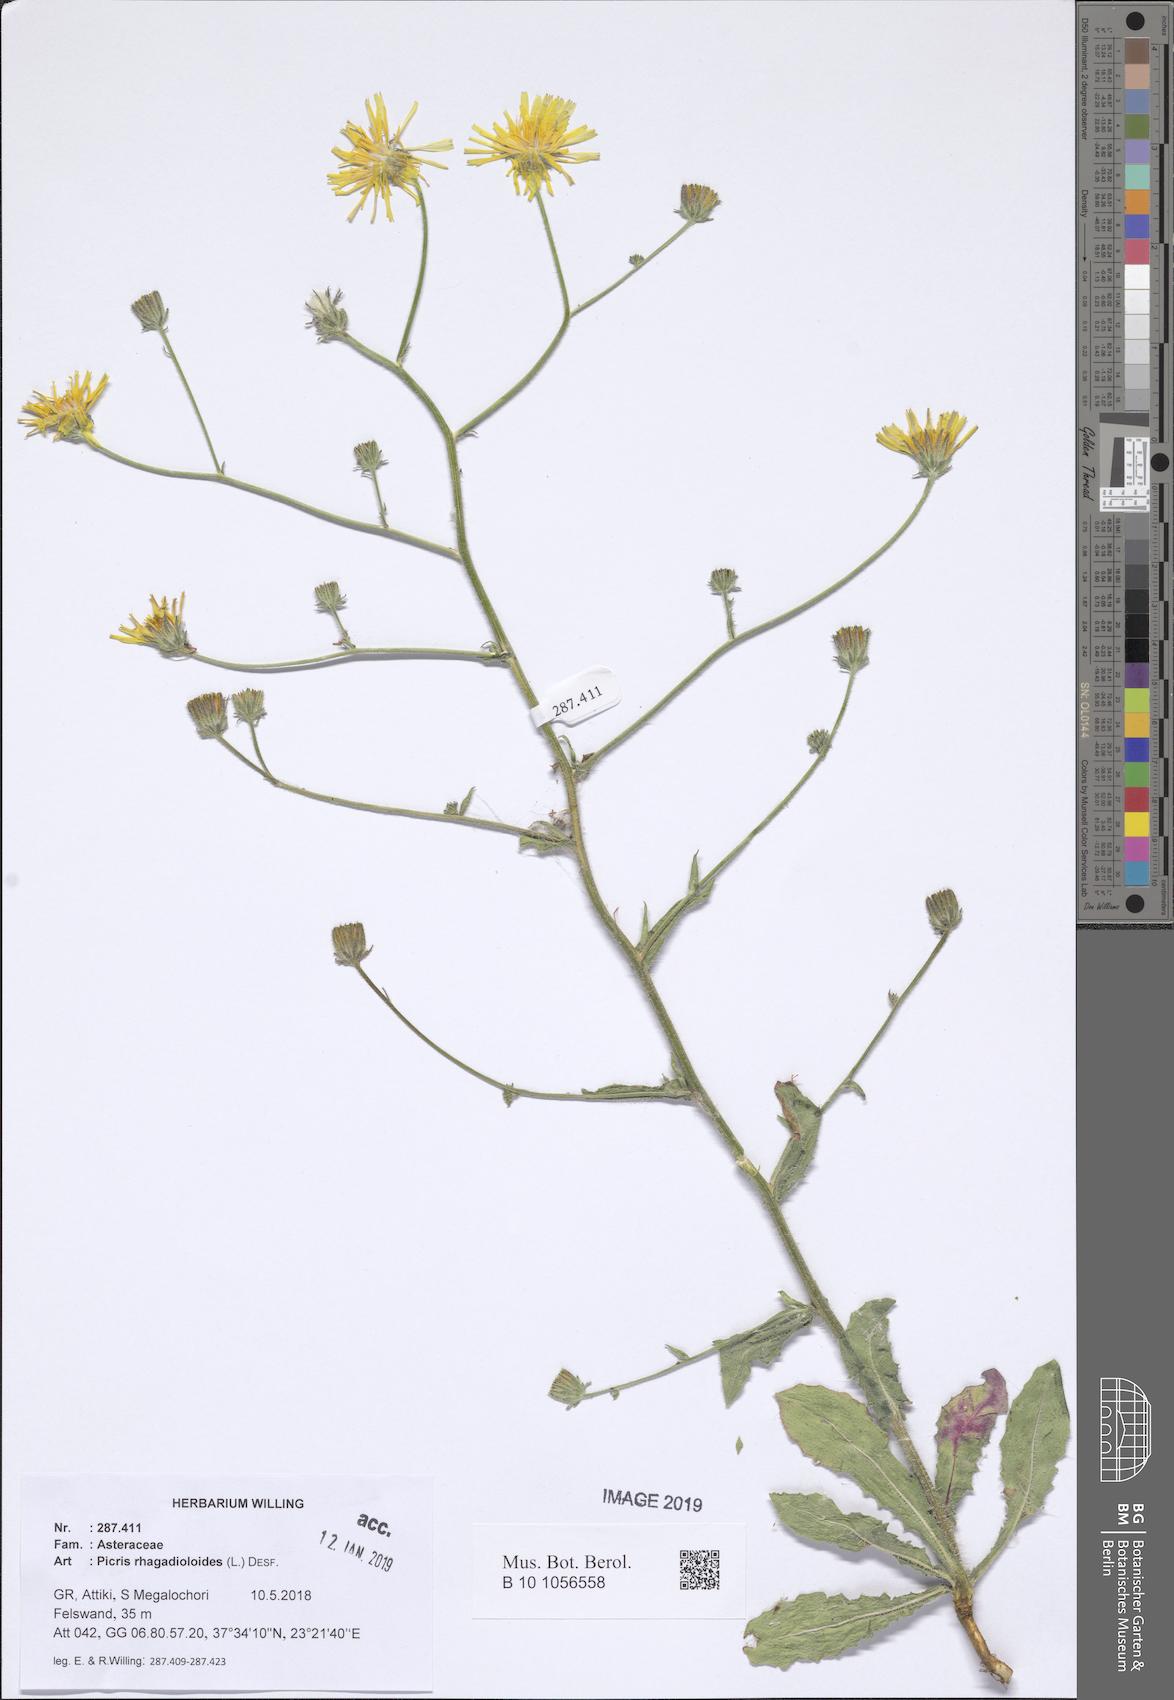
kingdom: Plantae
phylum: Tracheophyta
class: Magnoliopsida
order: Asterales
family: Asteraceae
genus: Picris
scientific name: Picris rhagadioloides
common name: Oxtongue
